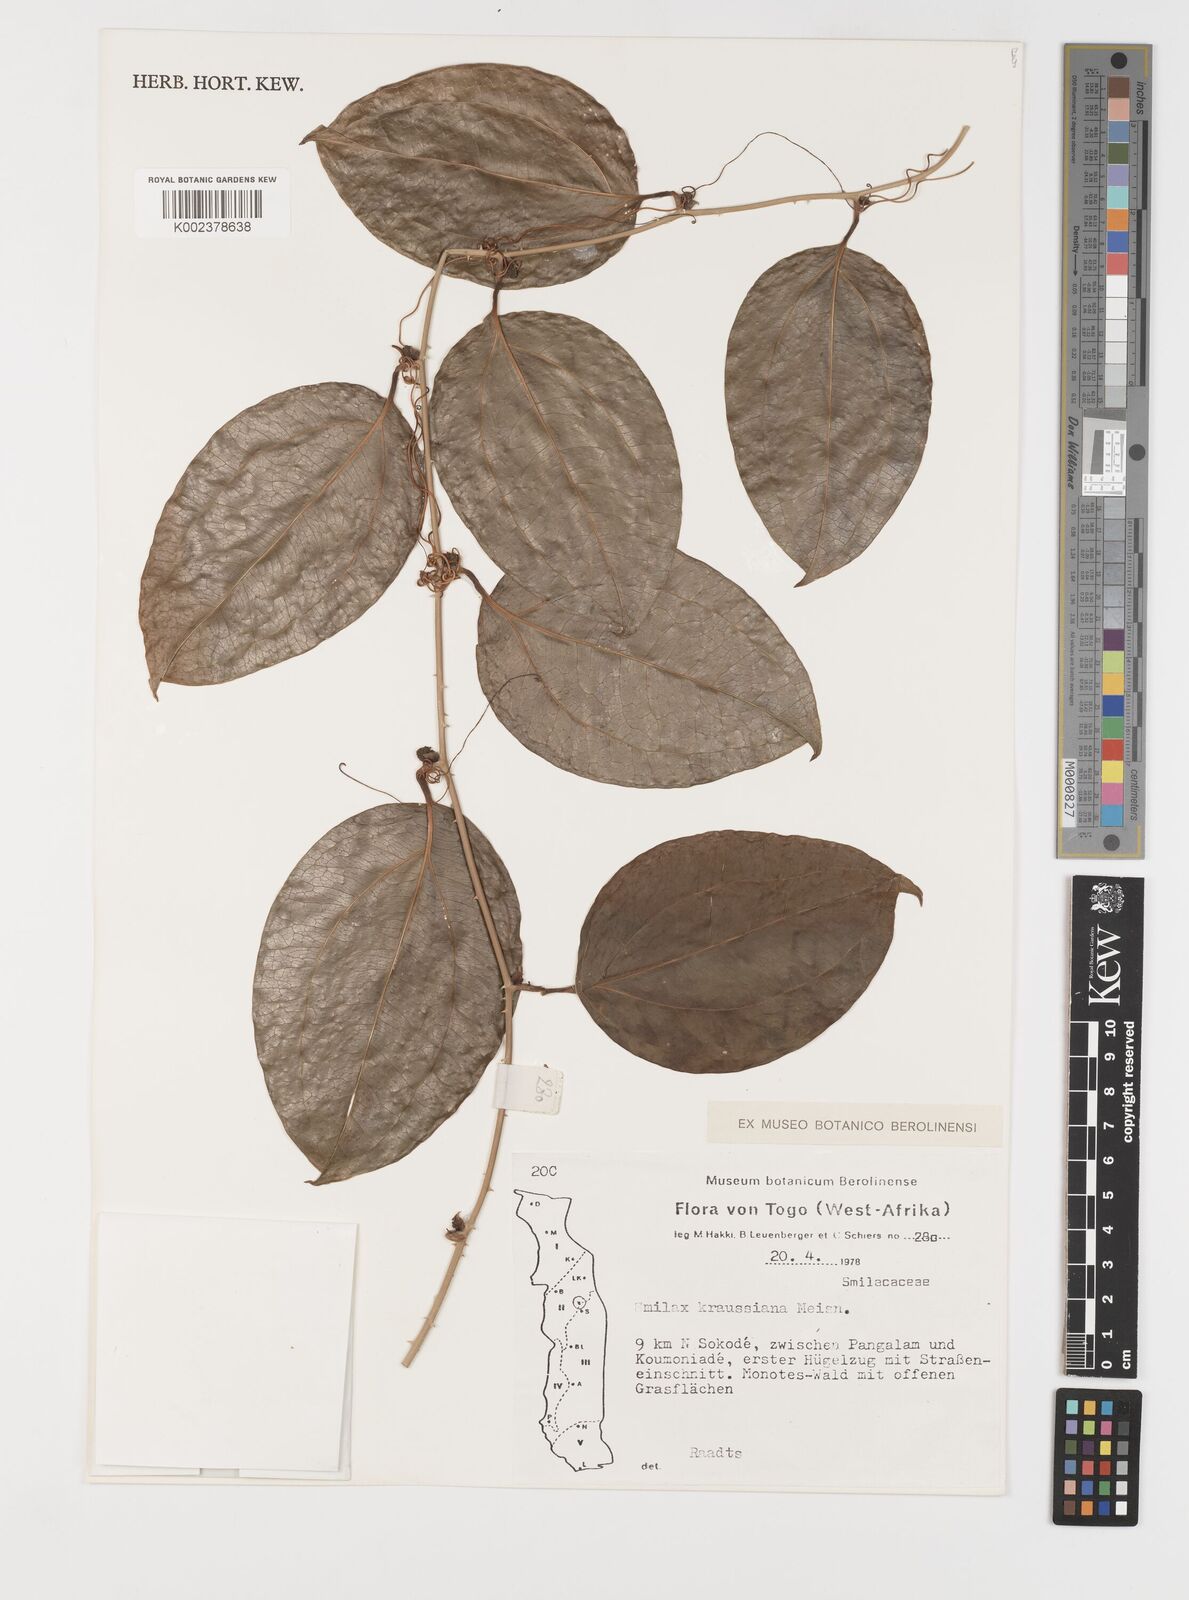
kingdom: Plantae
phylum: Tracheophyta
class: Liliopsida
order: Liliales
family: Smilacaceae
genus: Smilax
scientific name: Smilax anceps
